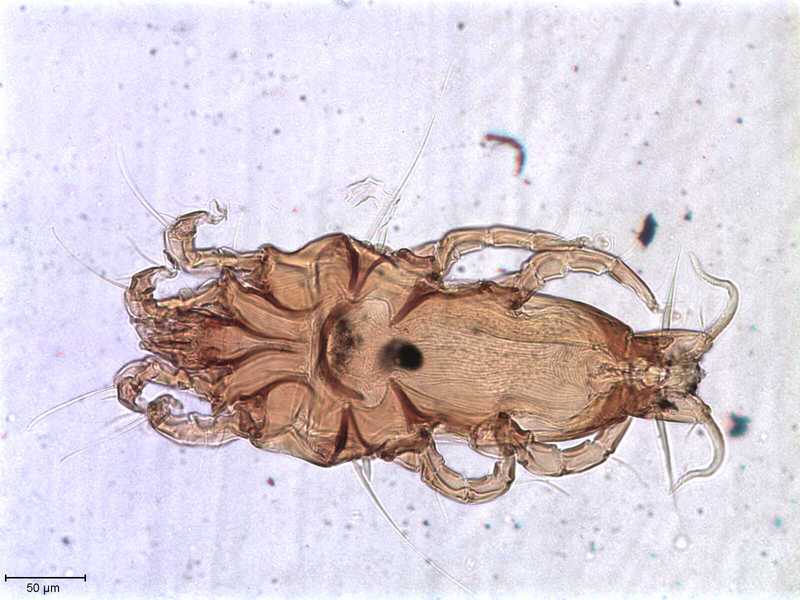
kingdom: Animalia
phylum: Arthropoda
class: Arachnida
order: Sarcoptiformes
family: Proctophyllodidae
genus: Proctophyllodes
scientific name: Proctophyllodes
